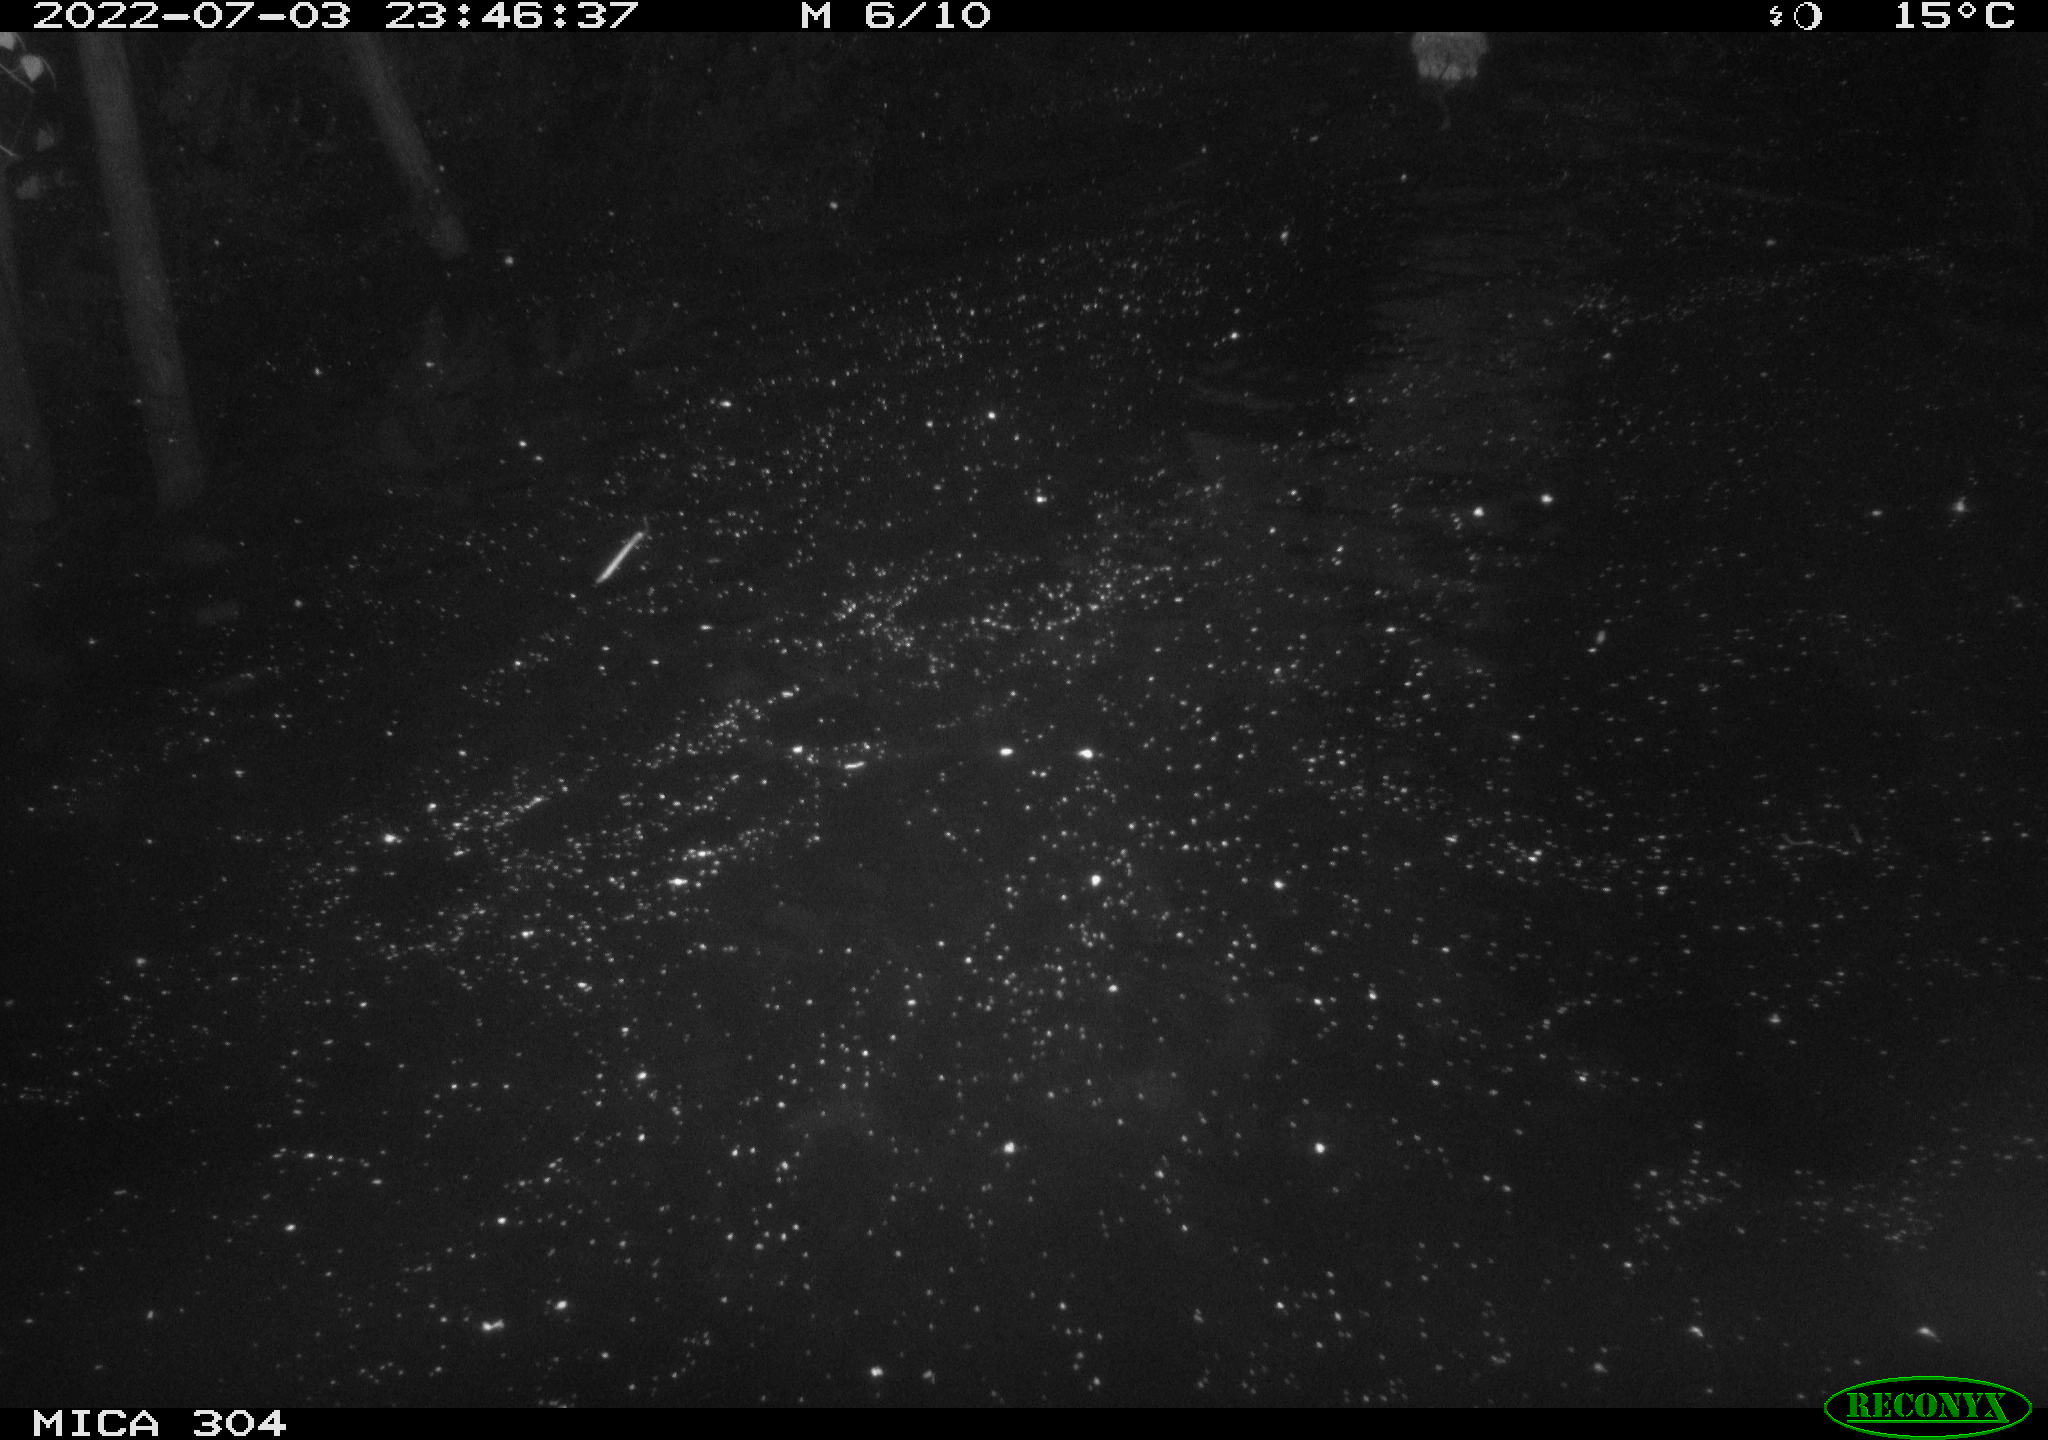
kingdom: Animalia
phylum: Chordata
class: Mammalia
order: Rodentia
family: Cricetidae
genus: Ondatra
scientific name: Ondatra zibethicus
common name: Muskrat
